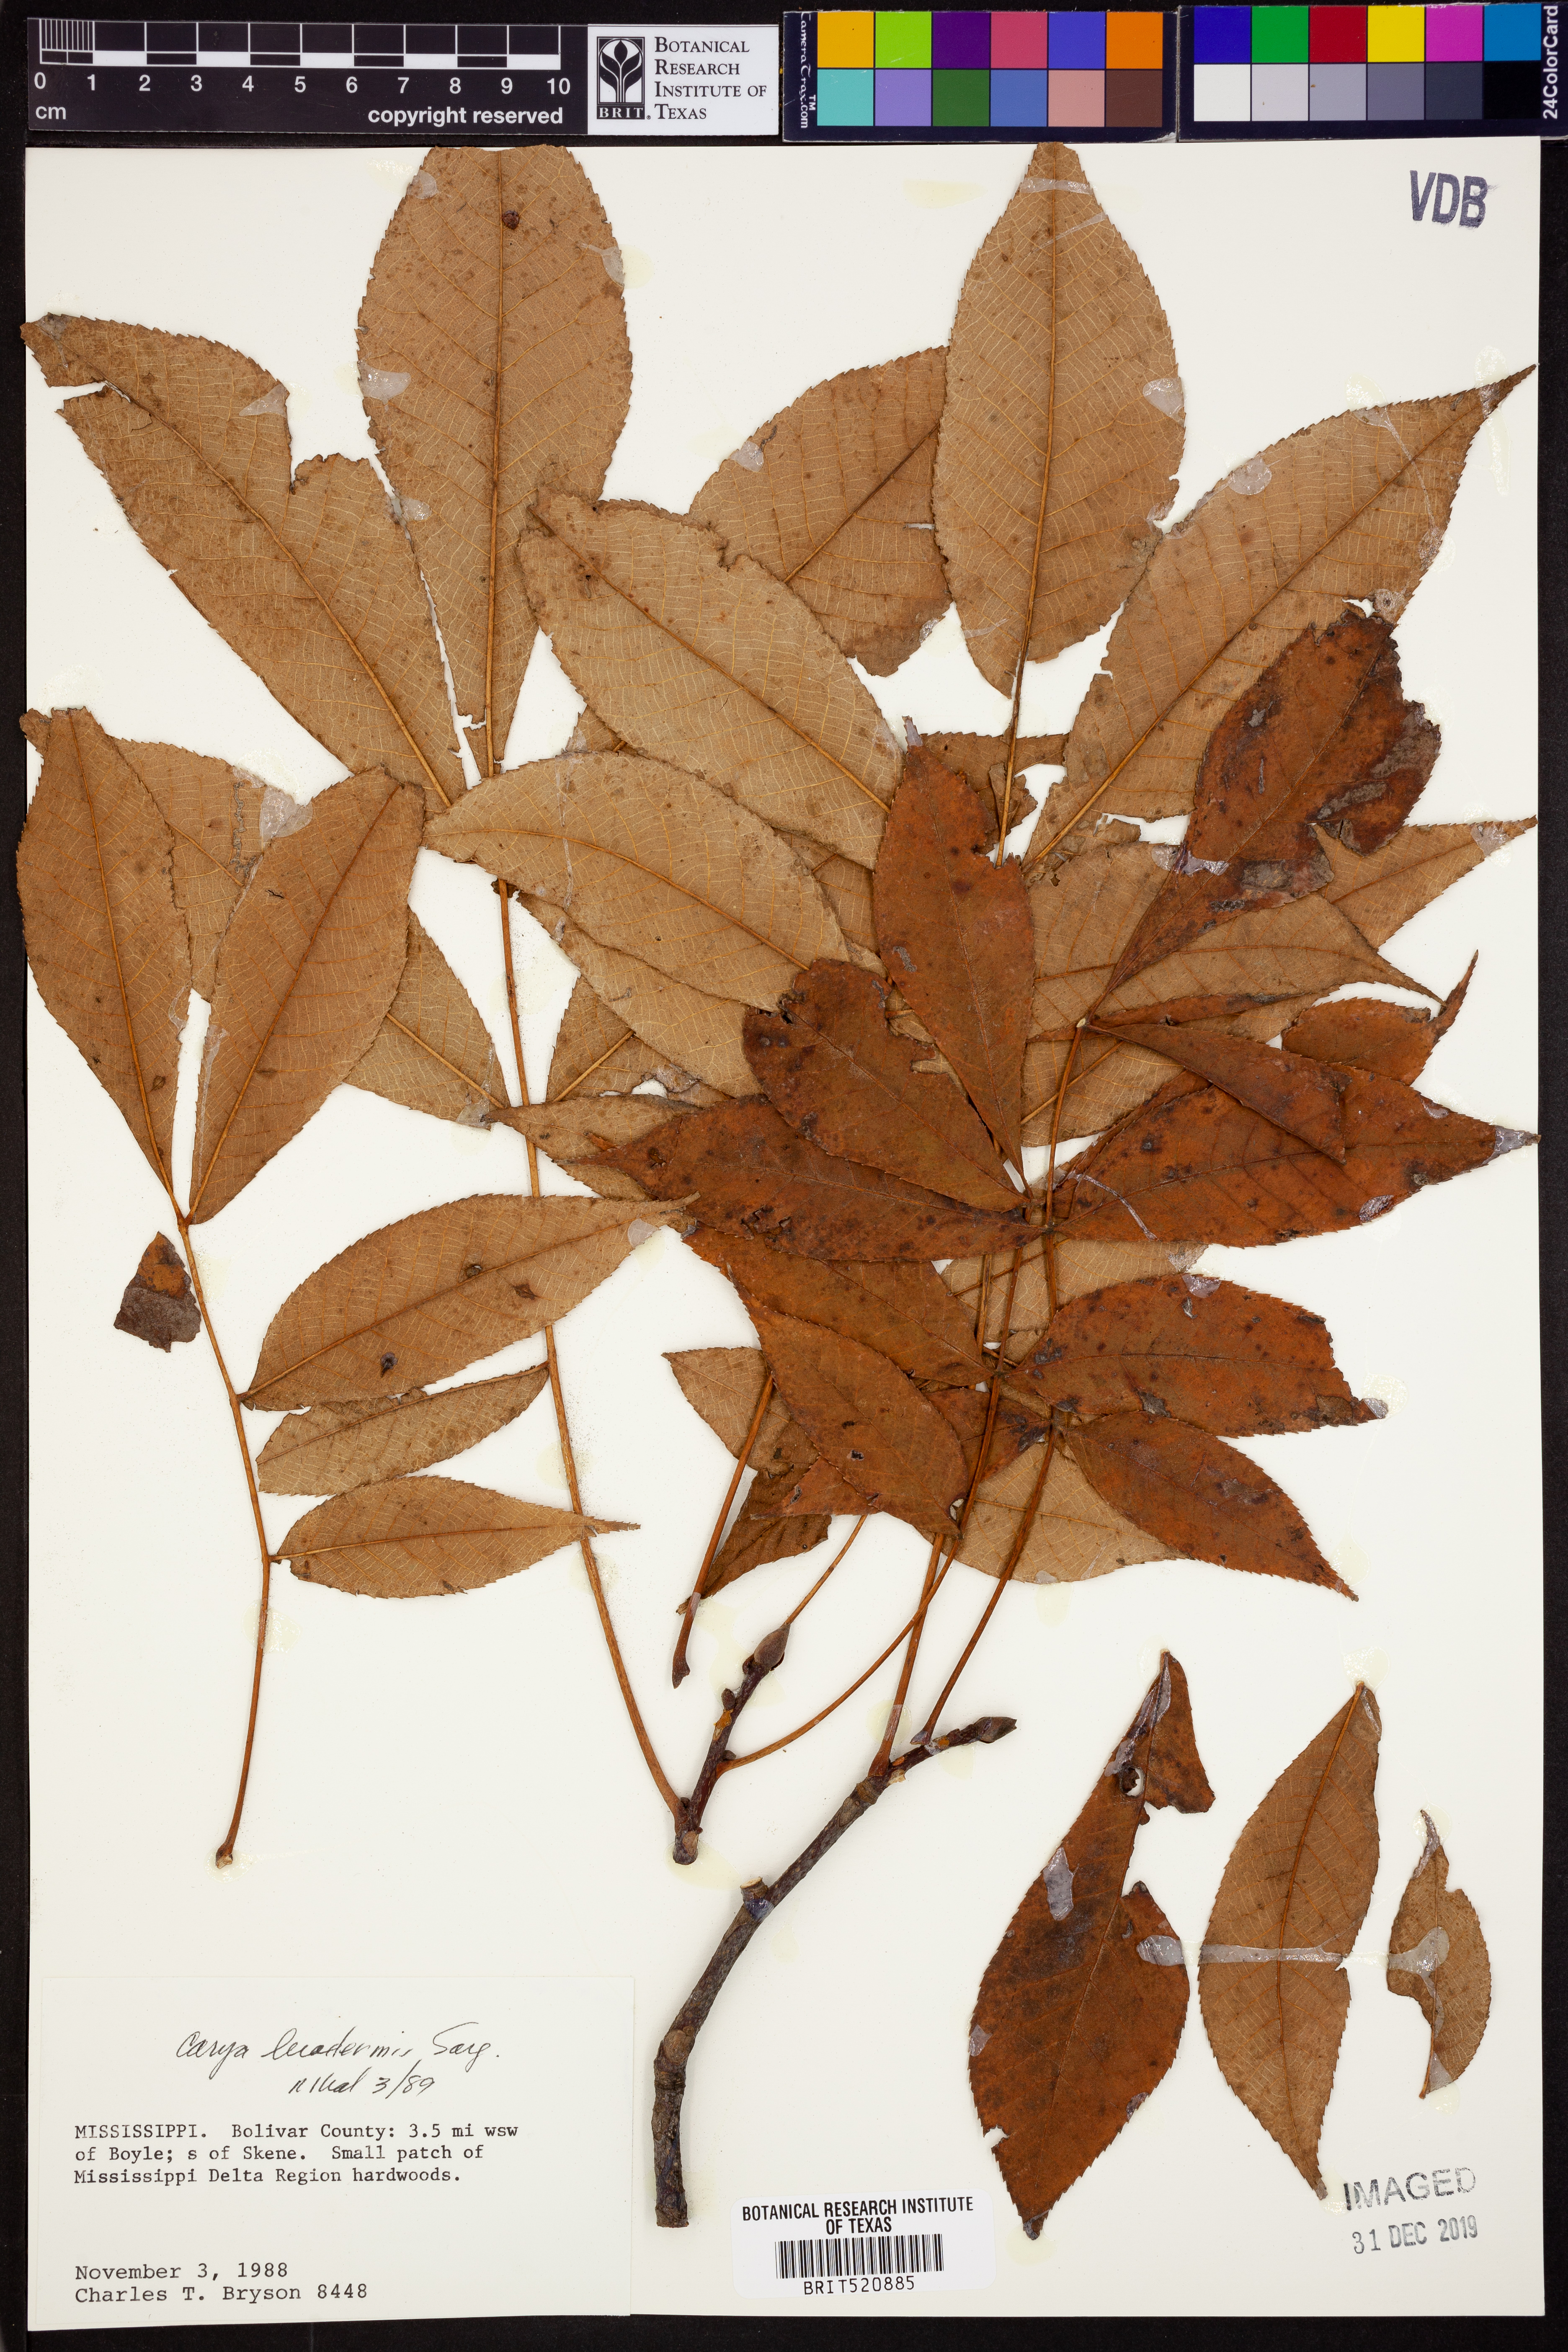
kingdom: Plantae
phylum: Tracheophyta
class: Magnoliopsida
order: Fagales
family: Juglandaceae
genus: Carya
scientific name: Carya glabra
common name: Pignut hickory
